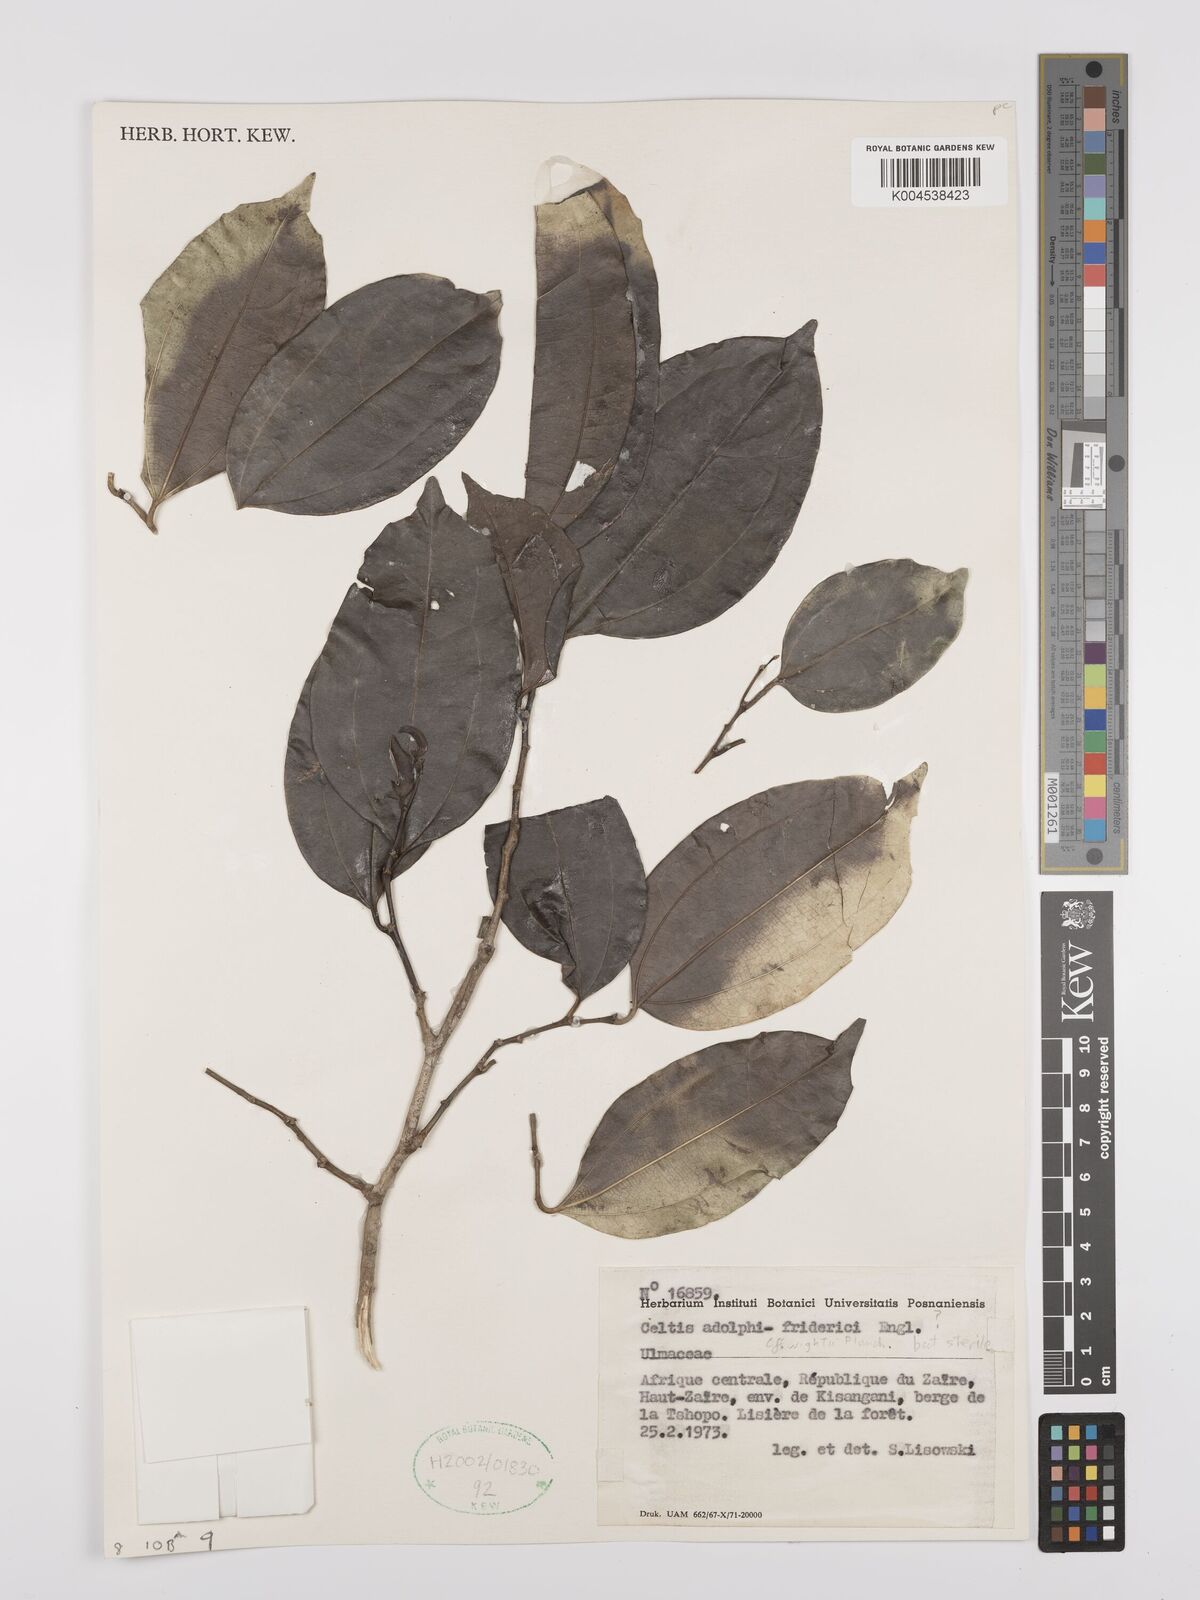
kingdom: Plantae
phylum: Tracheophyta
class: Magnoliopsida
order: Rosales
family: Cannabaceae
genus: Celtis
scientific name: Celtis adolfi-friderici
